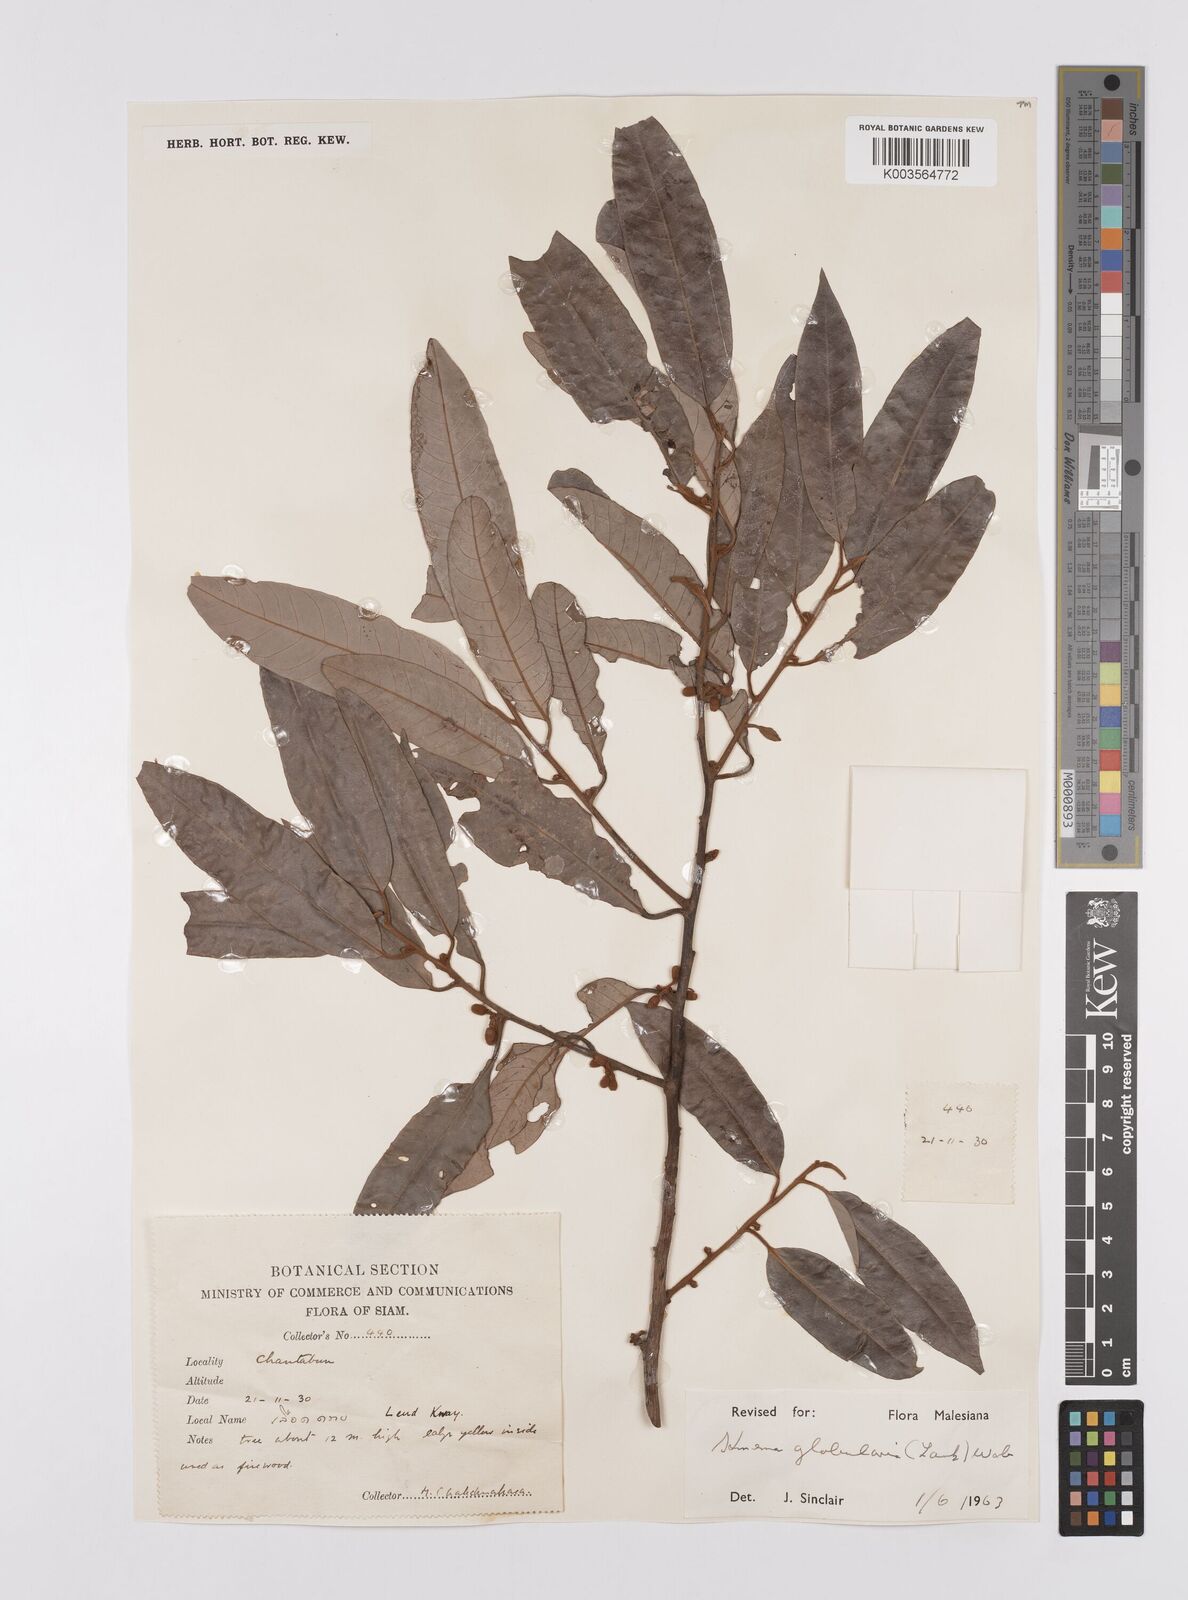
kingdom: Plantae
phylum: Tracheophyta
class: Magnoliopsida
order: Magnoliales
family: Myristicaceae
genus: Knema
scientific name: Knema globularia
